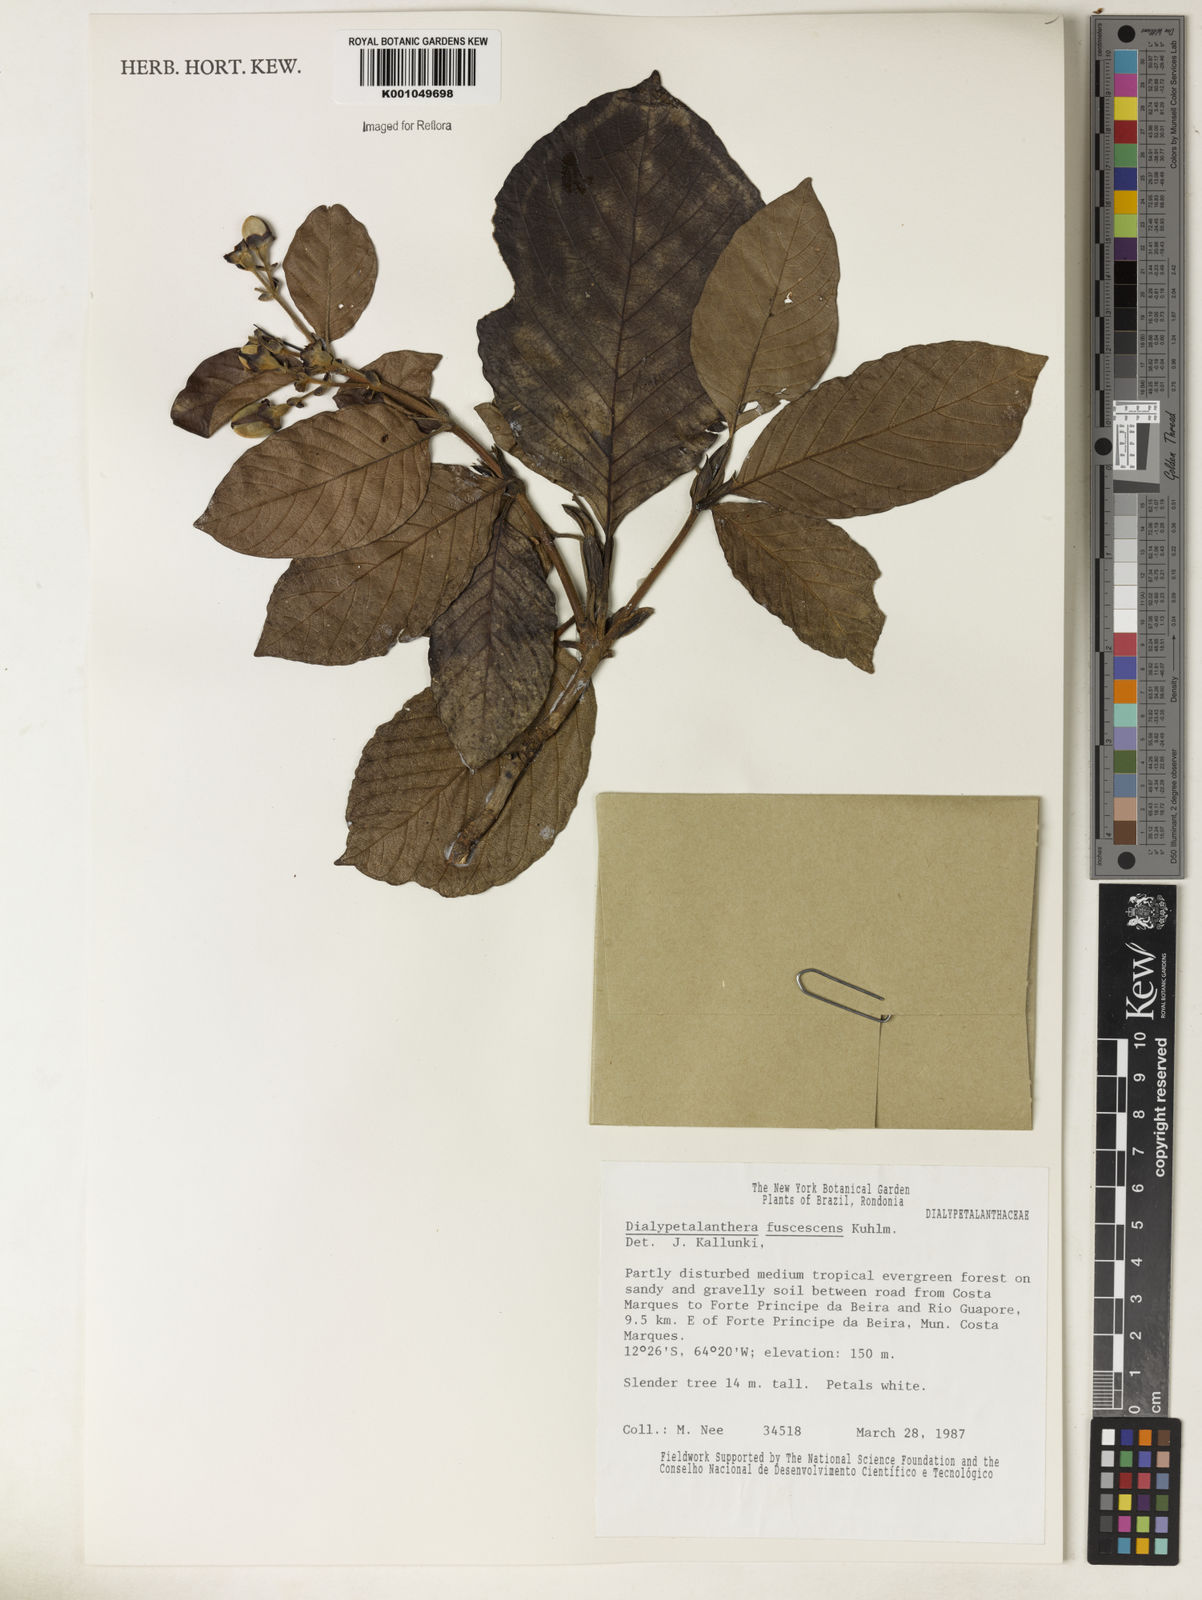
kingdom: Plantae
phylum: Tracheophyta
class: Magnoliopsida
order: Gentianales
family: Rubiaceae
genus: Dialypetalanthus
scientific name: Dialypetalanthus fuscescens
